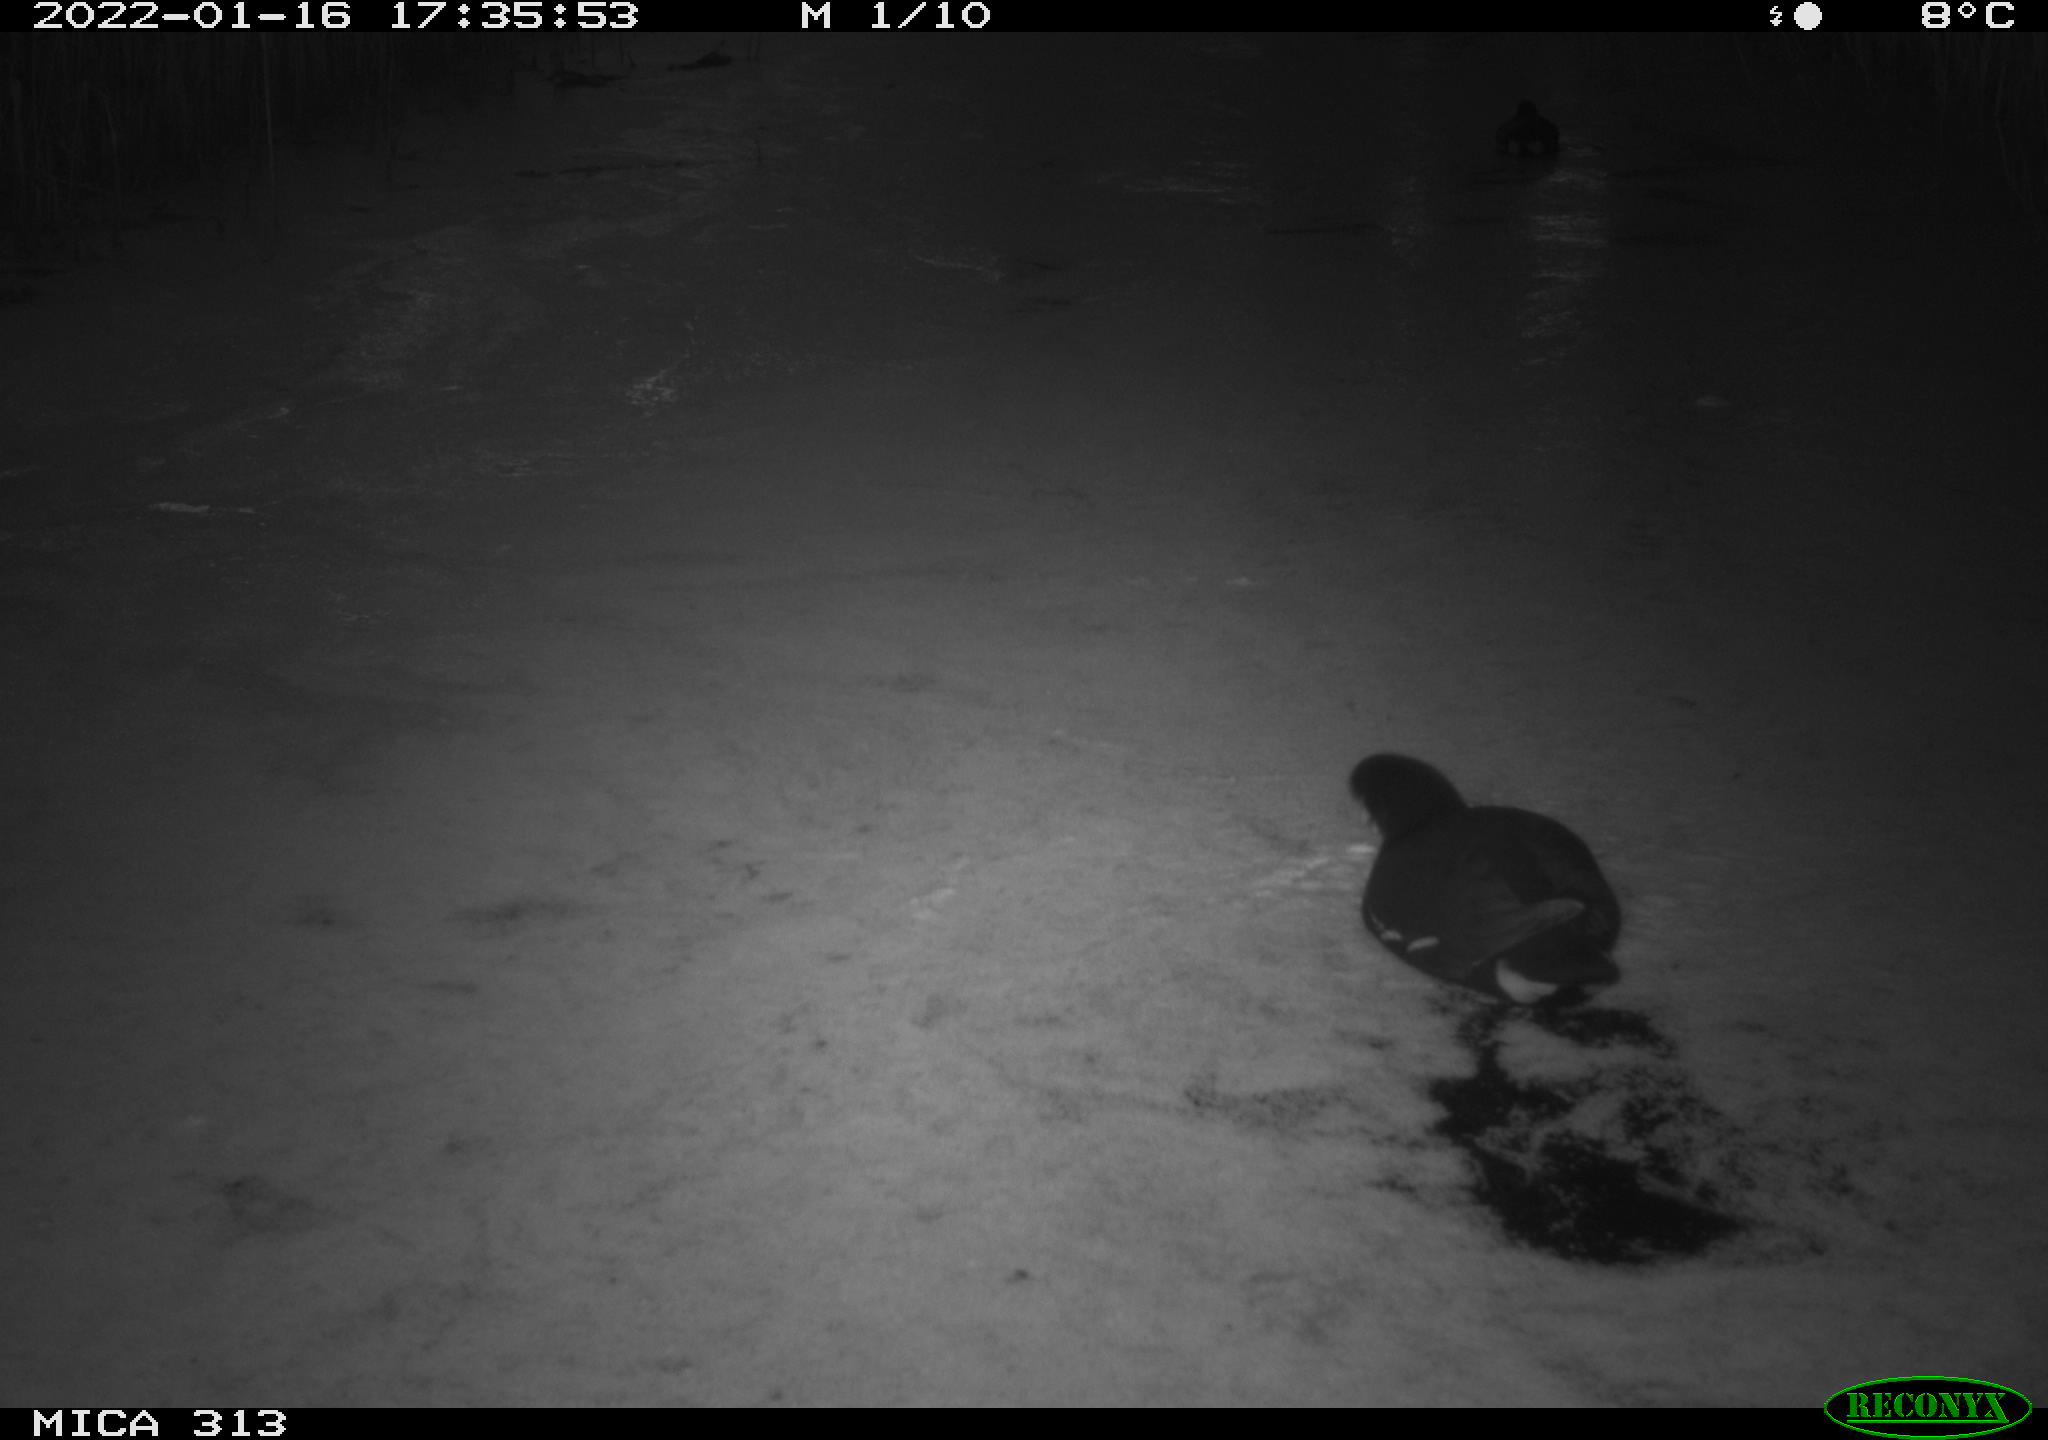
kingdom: Animalia
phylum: Chordata
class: Aves
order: Gruiformes
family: Rallidae
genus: Gallinula
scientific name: Gallinula chloropus
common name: Common moorhen
